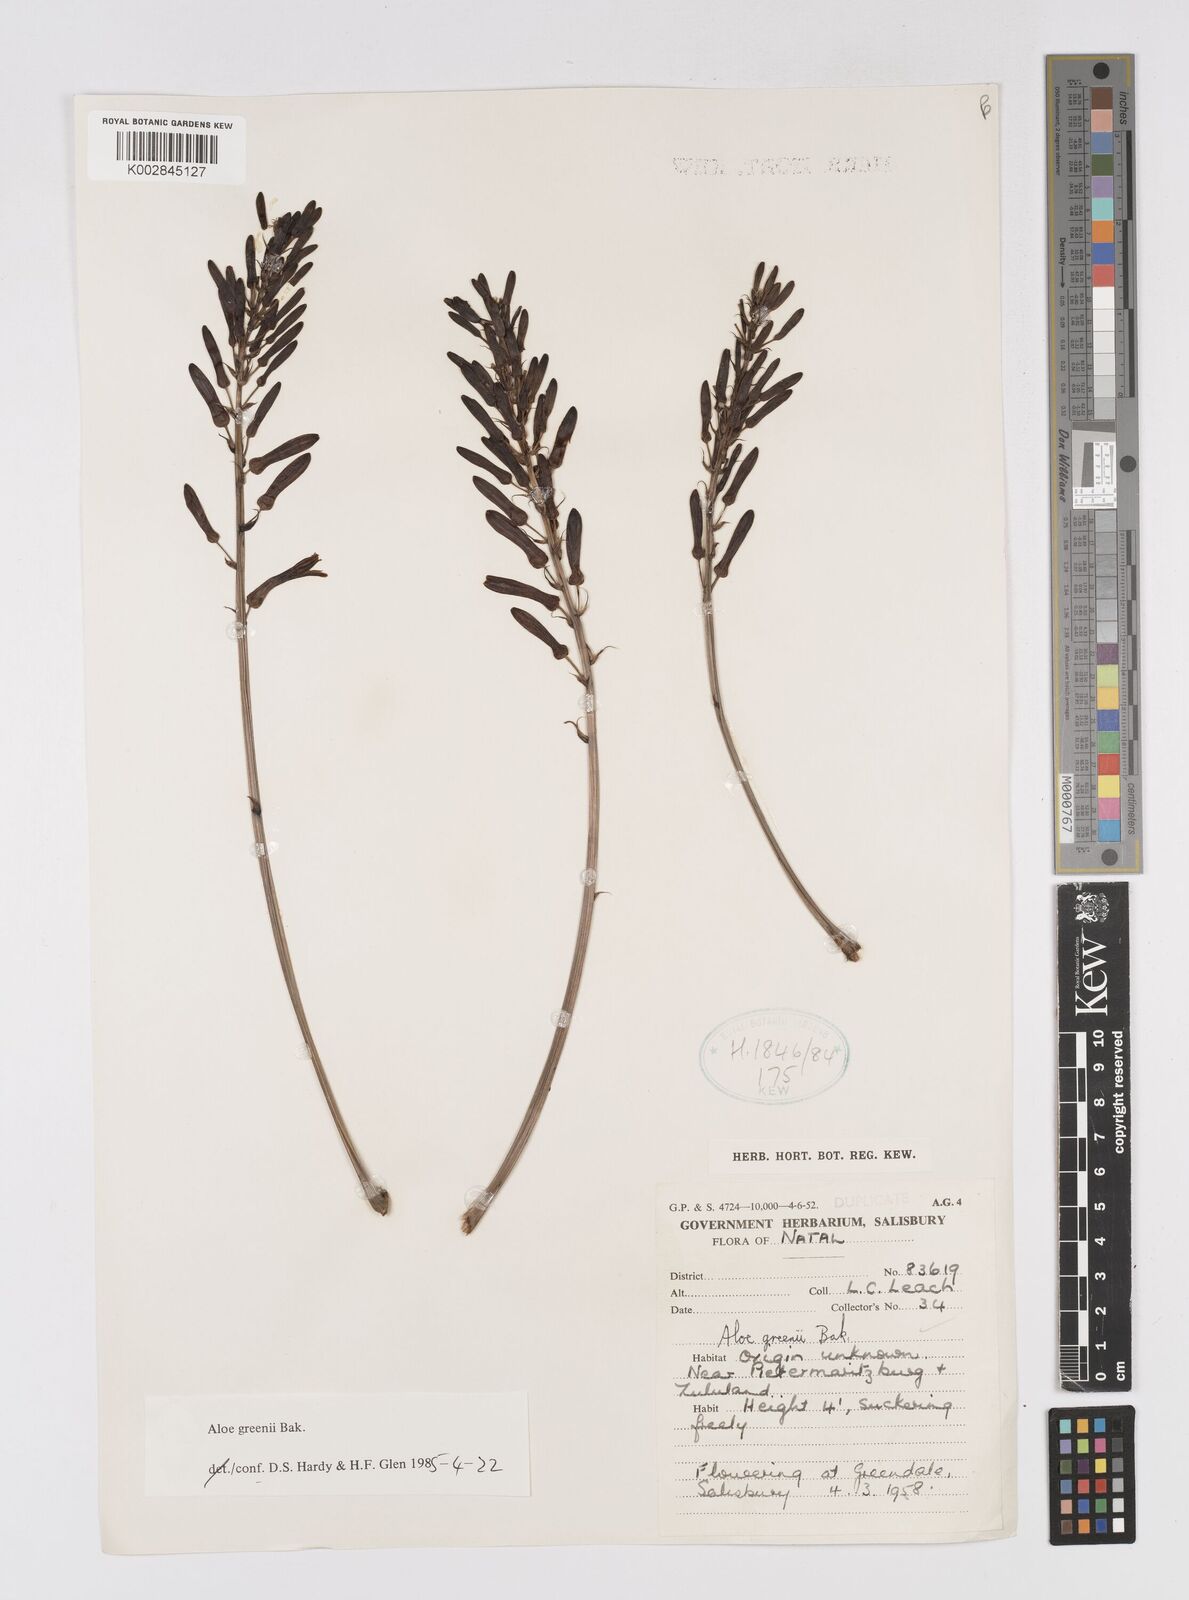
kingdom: Plantae
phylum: Tracheophyta
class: Liliopsida
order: Asparagales
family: Asphodelaceae
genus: Aloe
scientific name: Aloe greenii
